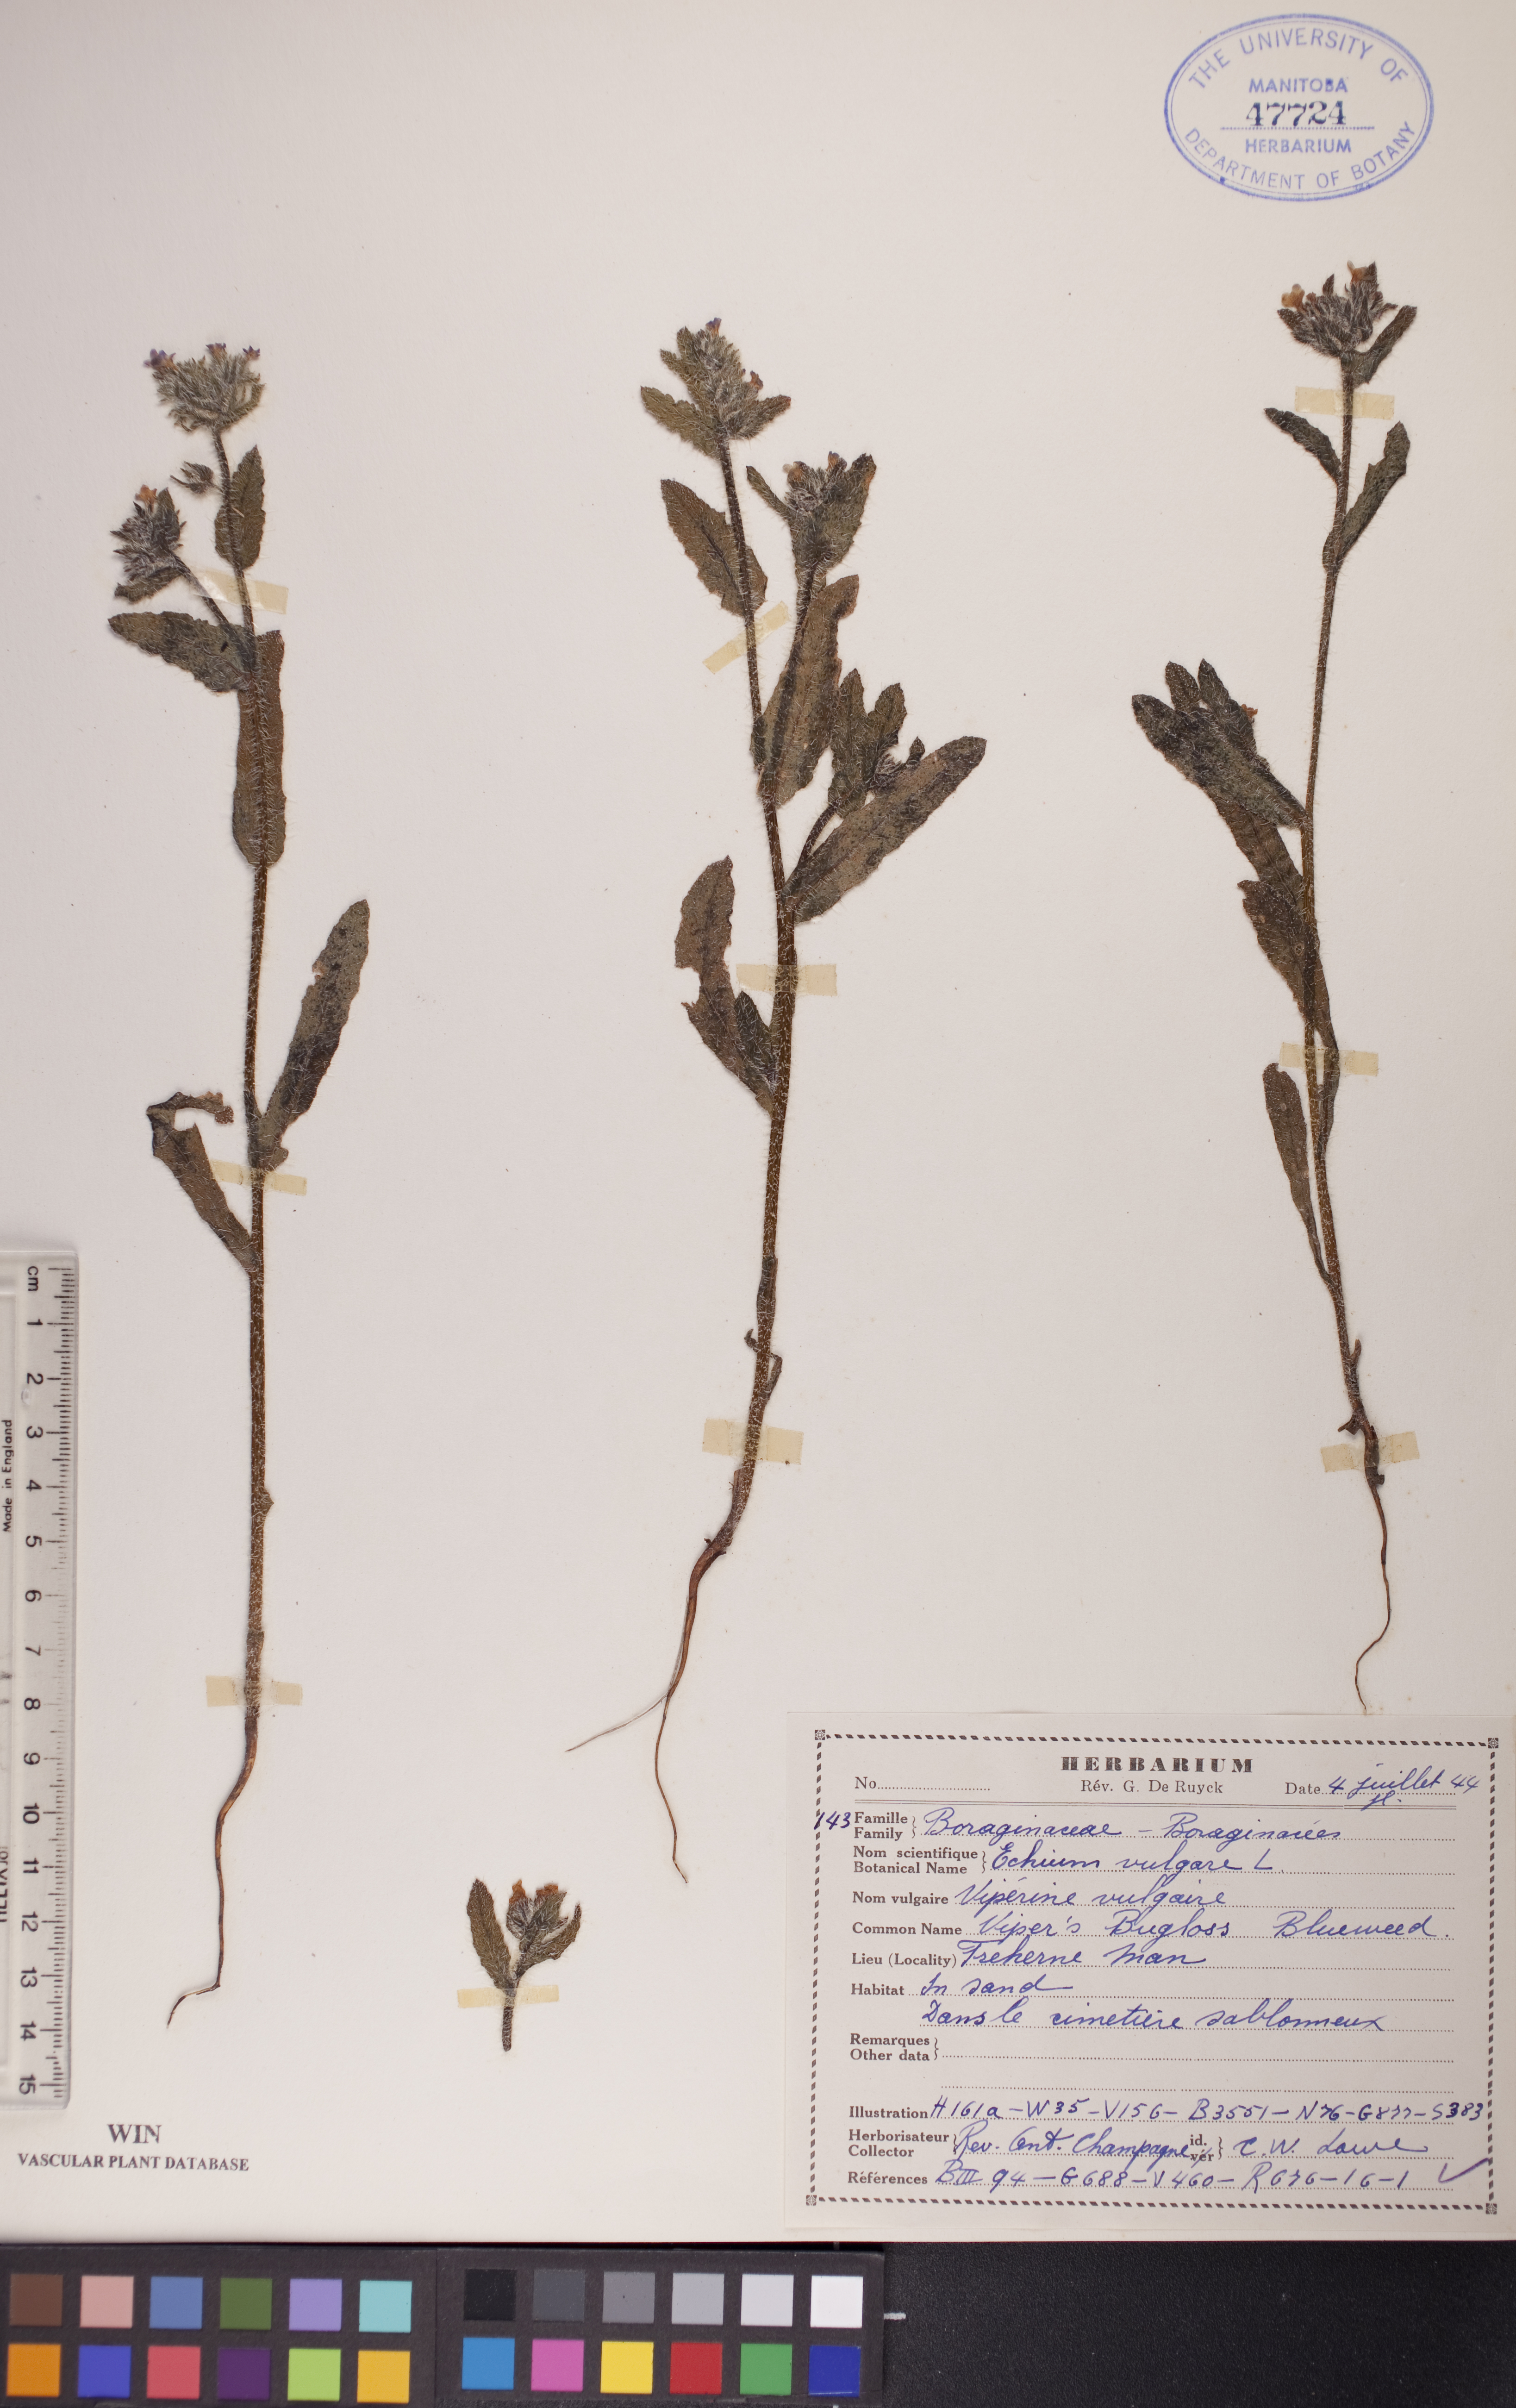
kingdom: Plantae
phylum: Tracheophyta
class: Magnoliopsida
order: Boraginales
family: Boraginaceae
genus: Echium
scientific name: Echium vulgare
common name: Common viper's bugloss
